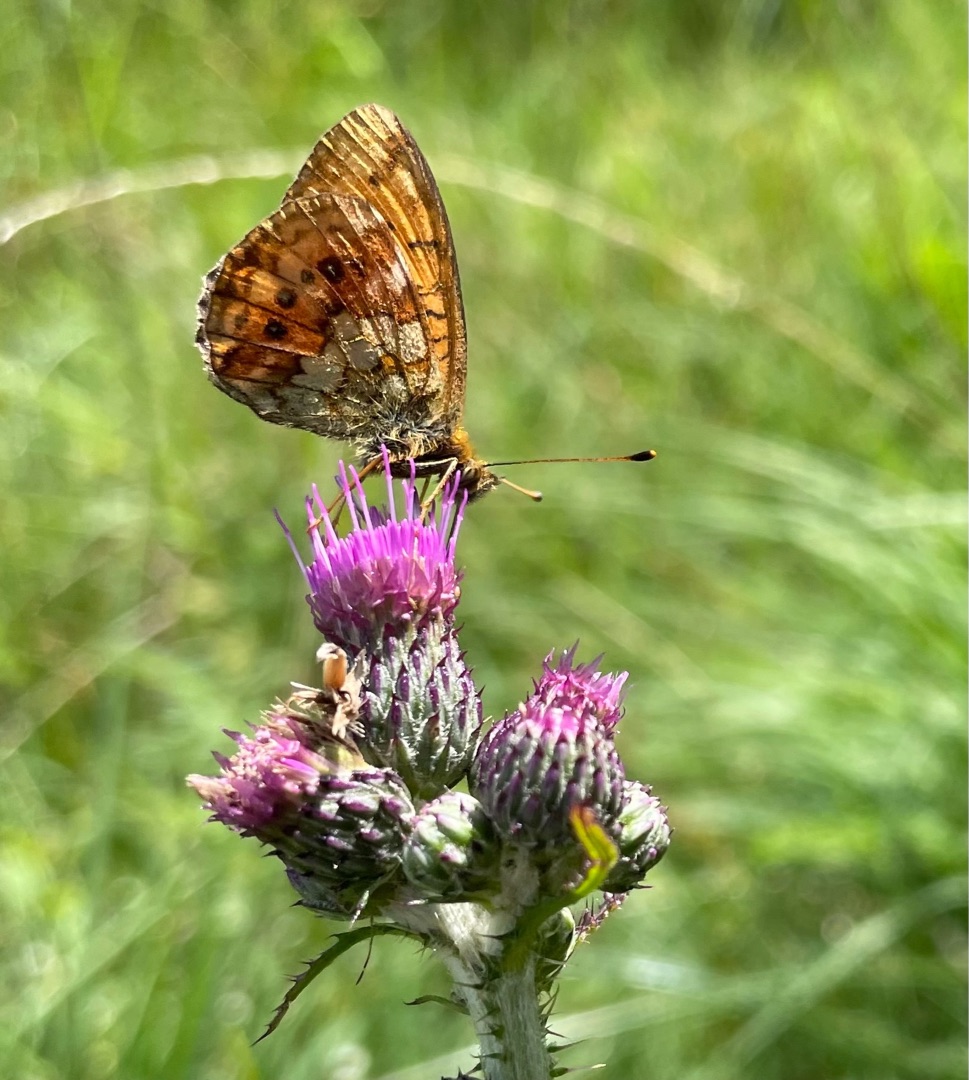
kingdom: Animalia
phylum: Arthropoda
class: Insecta
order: Lepidoptera
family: Nymphalidae
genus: Brenthis
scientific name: Brenthis ino
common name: Engperlemorsommerfugl
